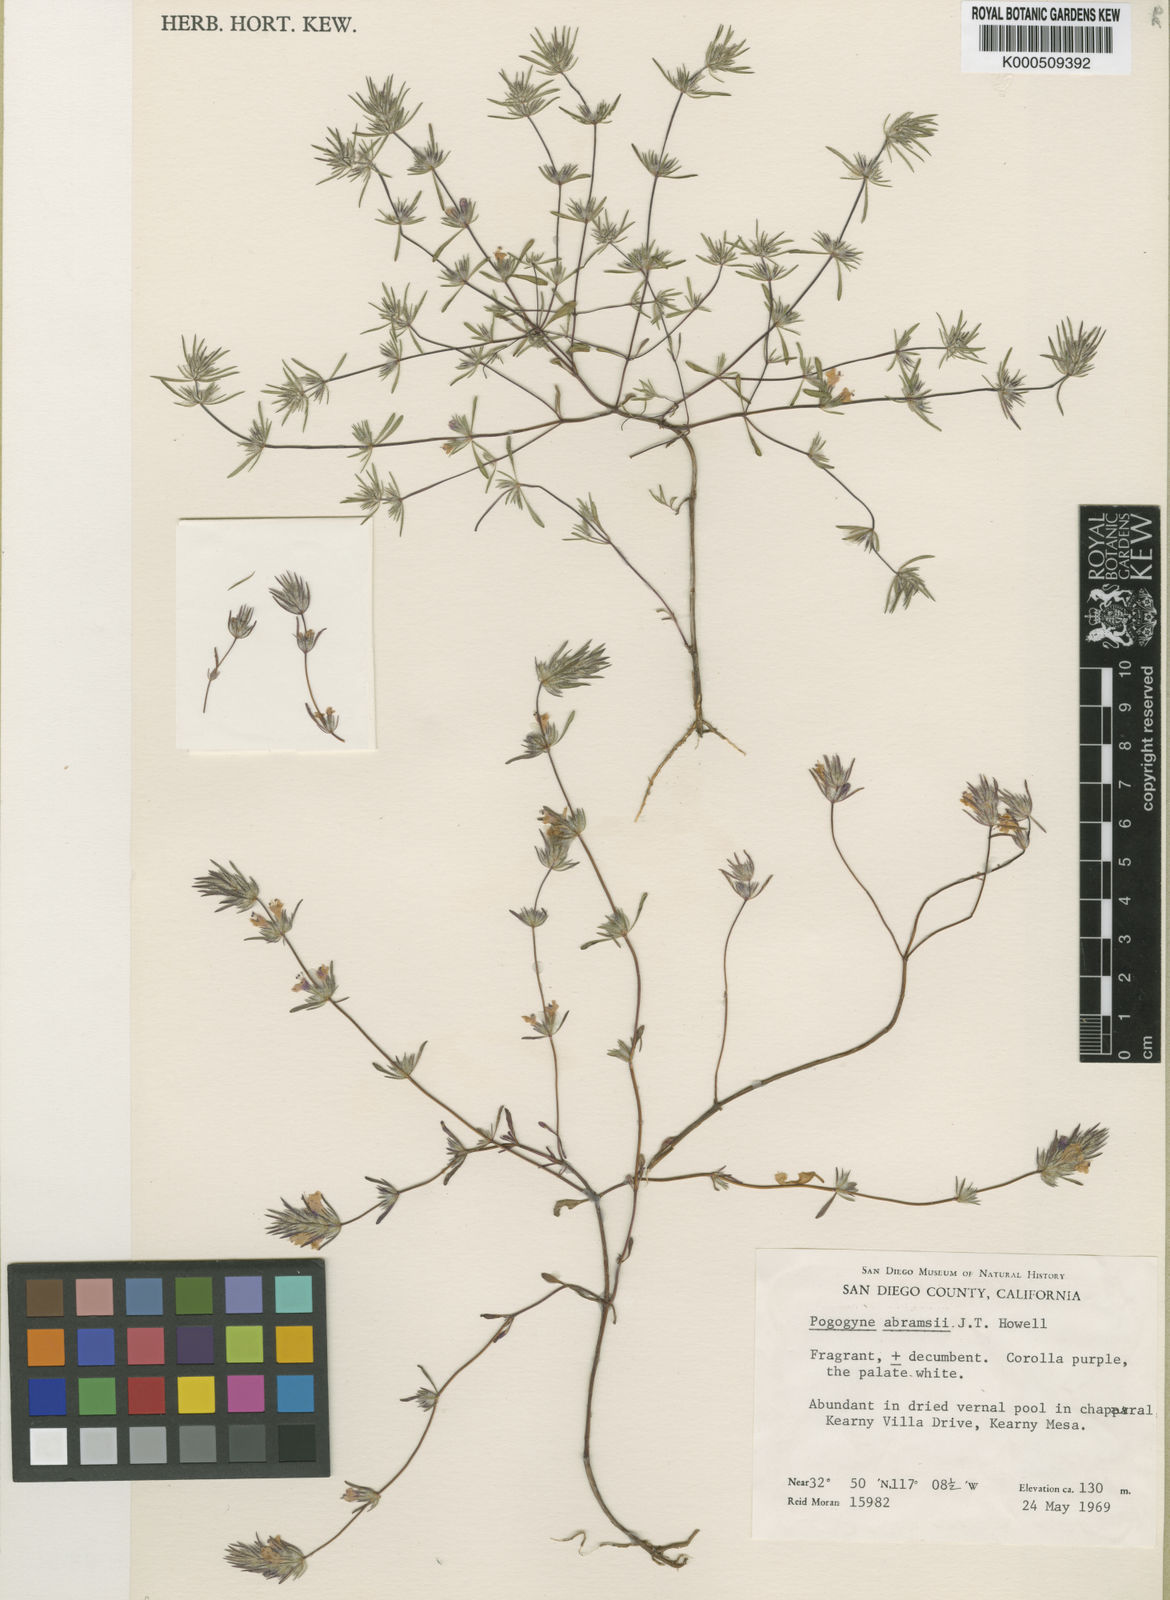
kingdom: Plantae
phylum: Tracheophyta
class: Magnoliopsida
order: Lamiales
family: Lamiaceae
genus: Pogogyne
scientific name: Pogogyne abramsii
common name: San diego mesa-mint
